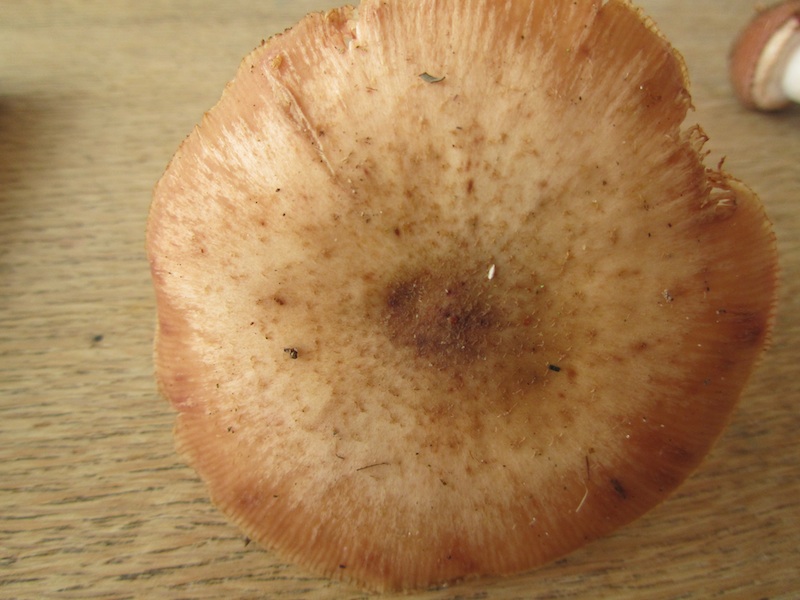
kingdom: Fungi
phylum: Basidiomycota
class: Agaricomycetes
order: Agaricales
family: Physalacriaceae
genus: Armillaria
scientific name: Armillaria lutea
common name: køllestokket honningsvamp
